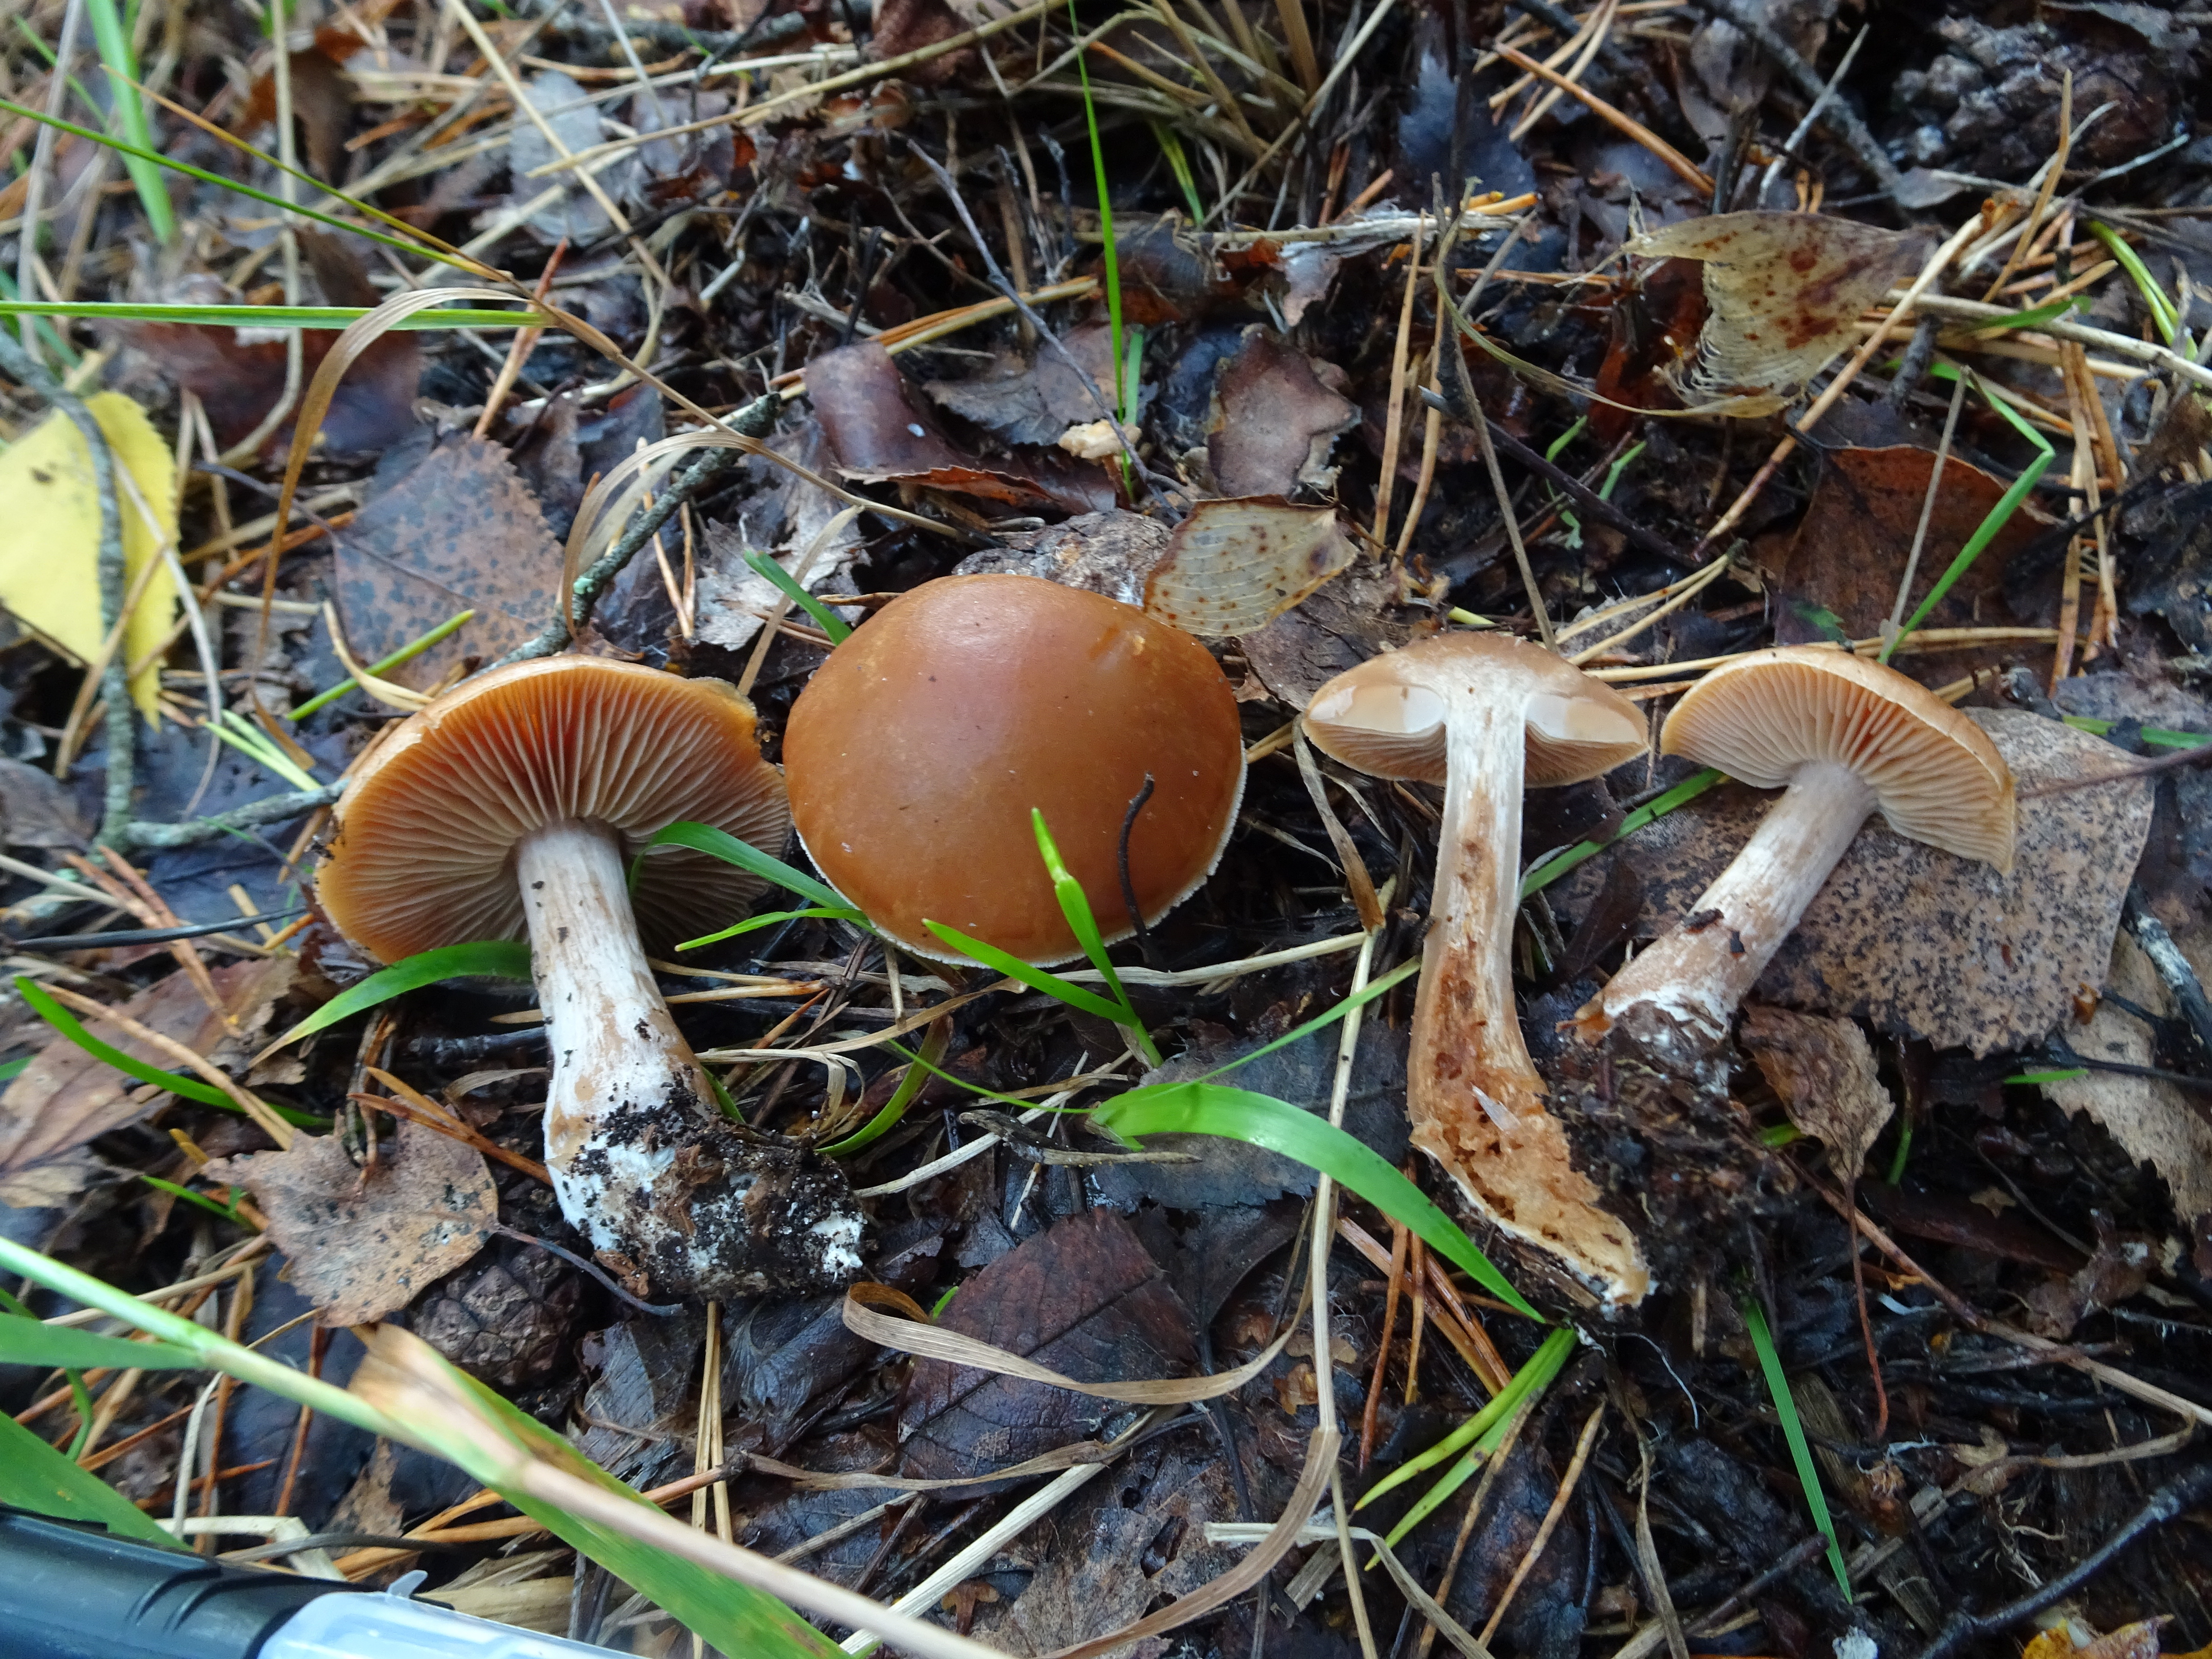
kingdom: Fungi
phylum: Basidiomycota
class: Agaricomycetes
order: Agaricales
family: Cortinariaceae
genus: Cortinarius
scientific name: Cortinarius
